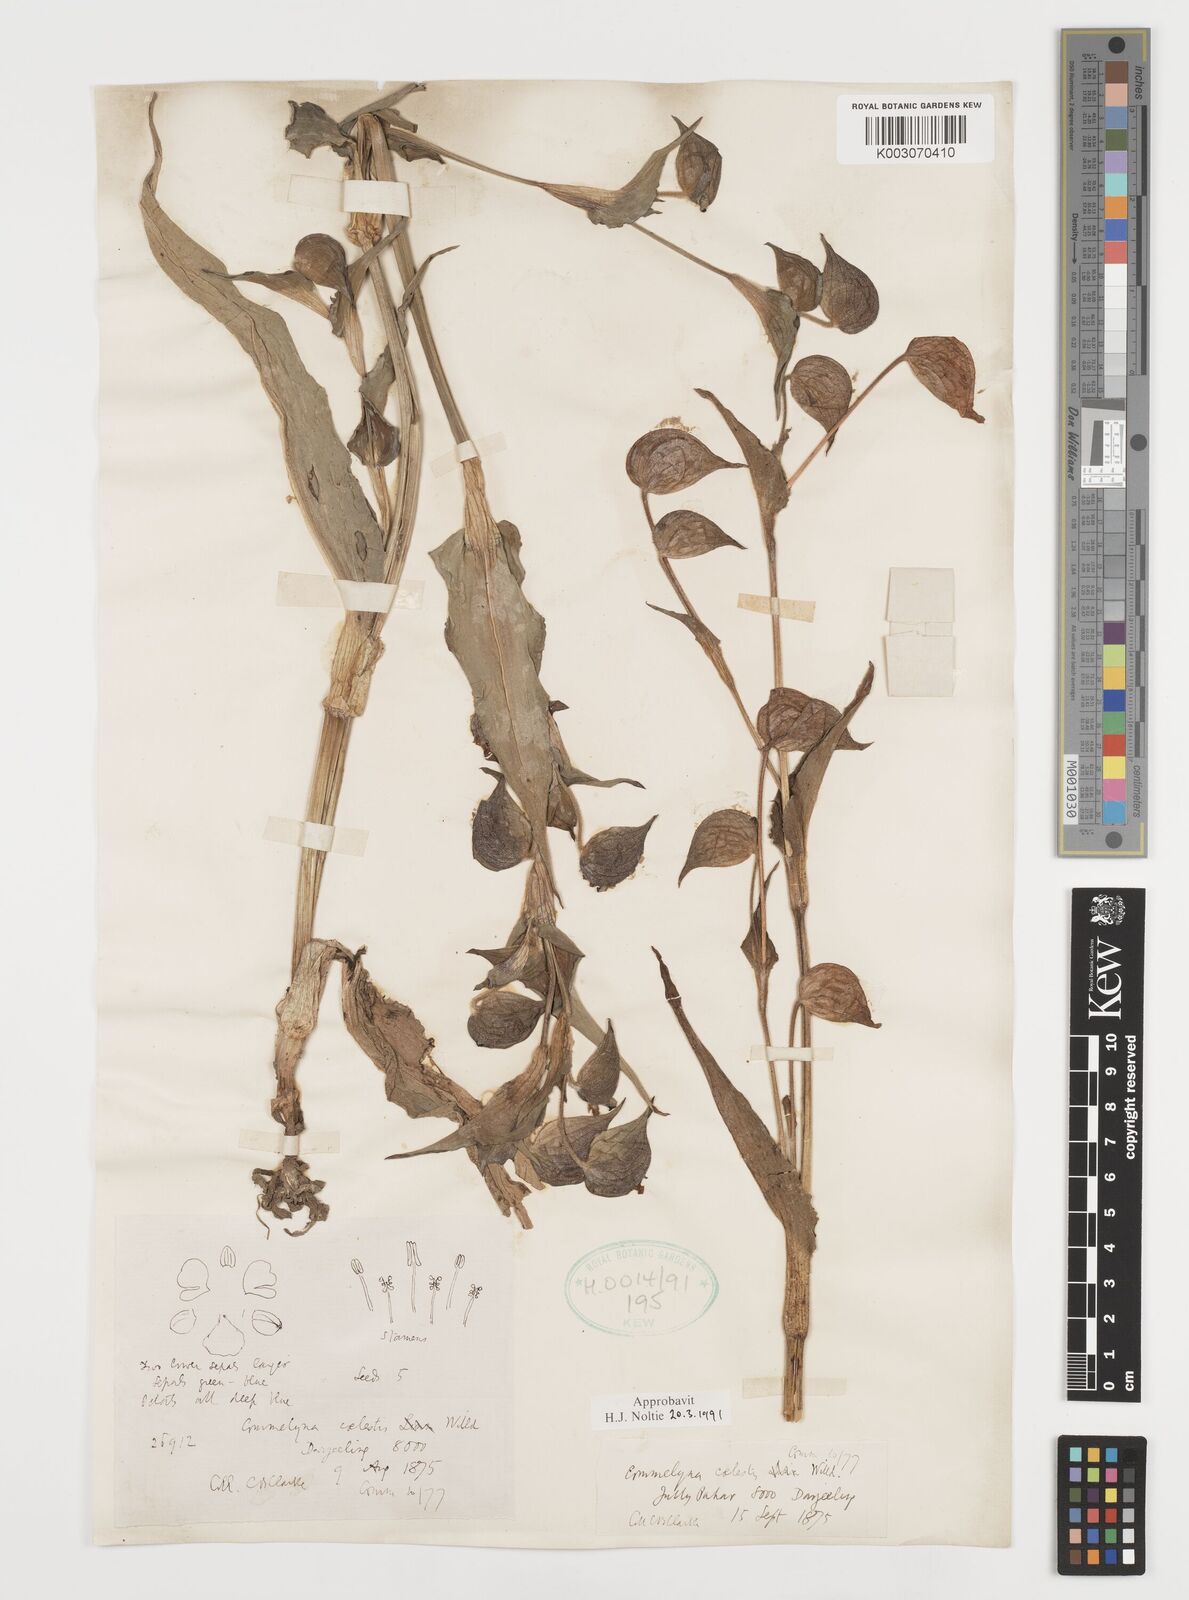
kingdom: Plantae
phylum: Tracheophyta
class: Liliopsida
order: Commelinales
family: Commelinaceae
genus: Commelina
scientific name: Commelina tuberosa
